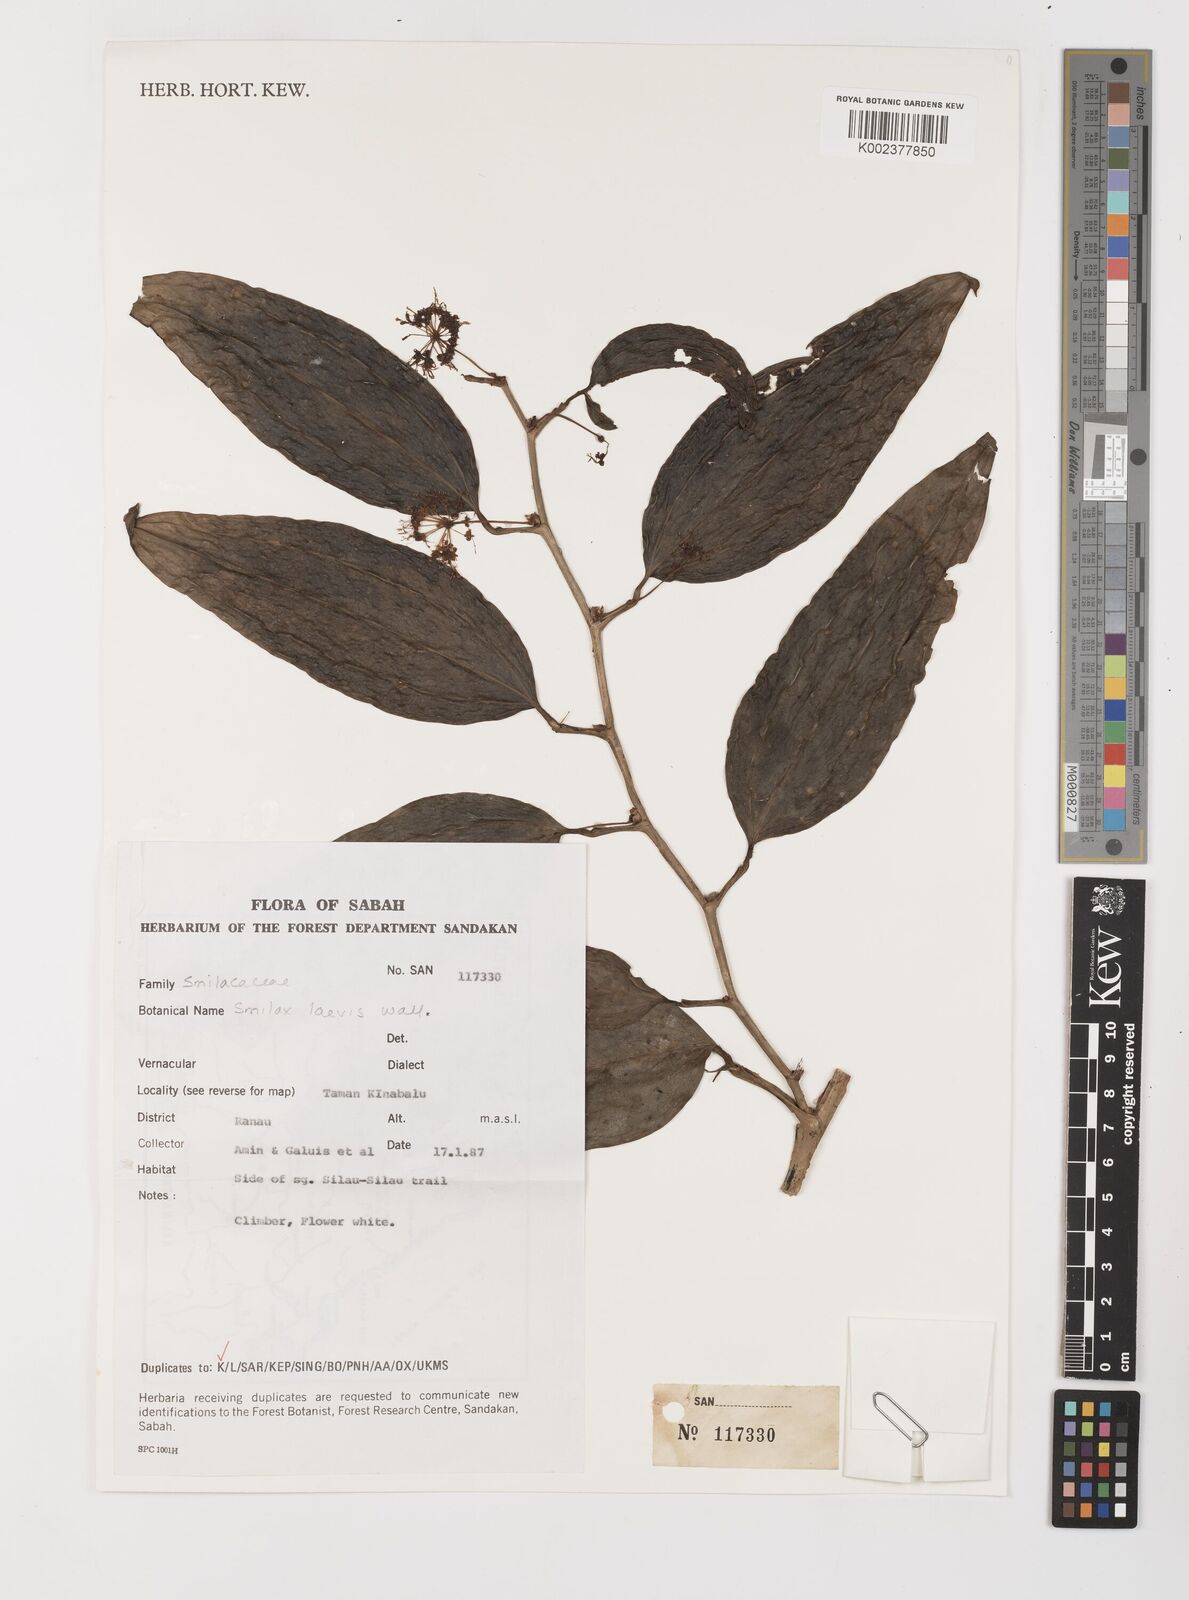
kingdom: Plantae
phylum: Tracheophyta
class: Liliopsida
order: Liliales
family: Smilacaceae
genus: Smilax
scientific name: Smilax
